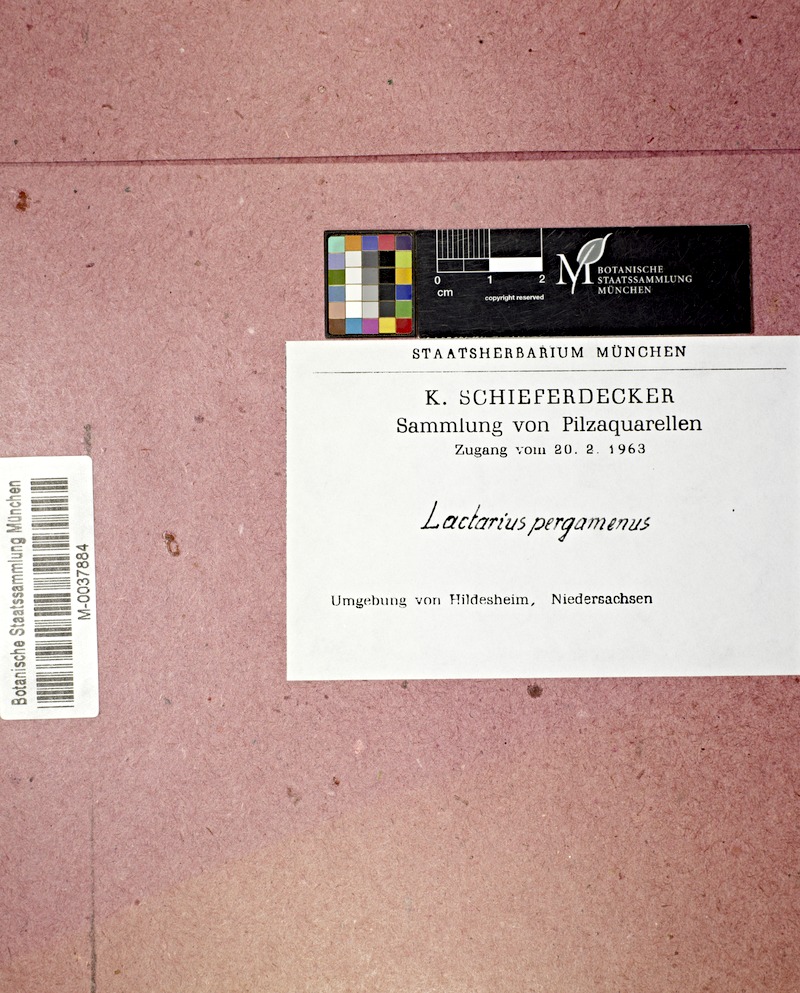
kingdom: Fungi
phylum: Basidiomycota
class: Agaricomycetes
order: Russulales
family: Russulaceae
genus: Lactifluus
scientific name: Lactifluus glaucescens
